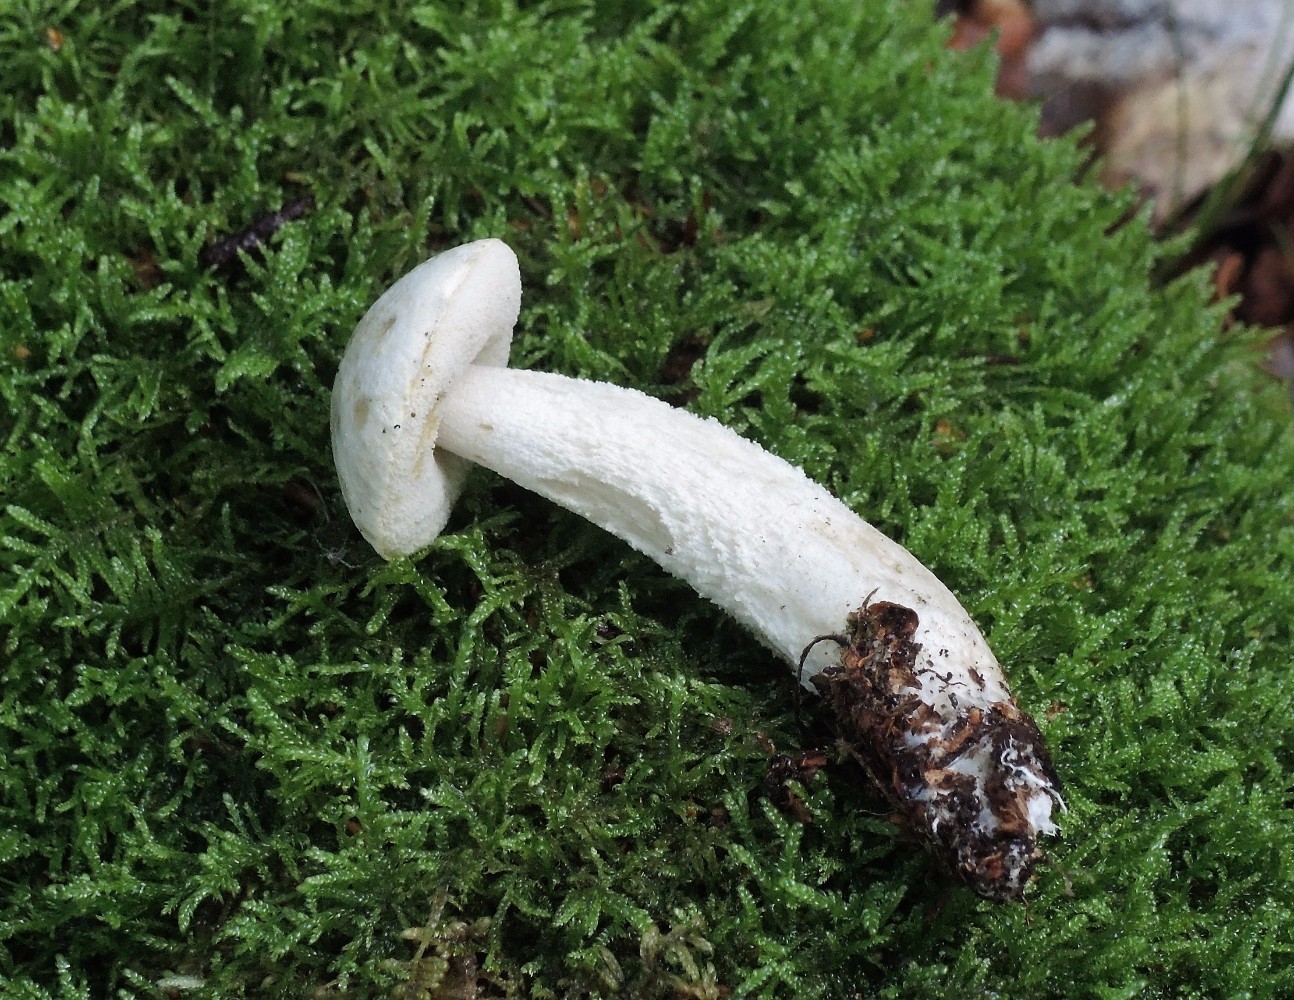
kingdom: Fungi
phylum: Basidiomycota
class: Agaricomycetes
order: Boletales
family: Boletaceae
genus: Leccinum
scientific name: Leccinum scabrum
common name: hvid skælrørhat
